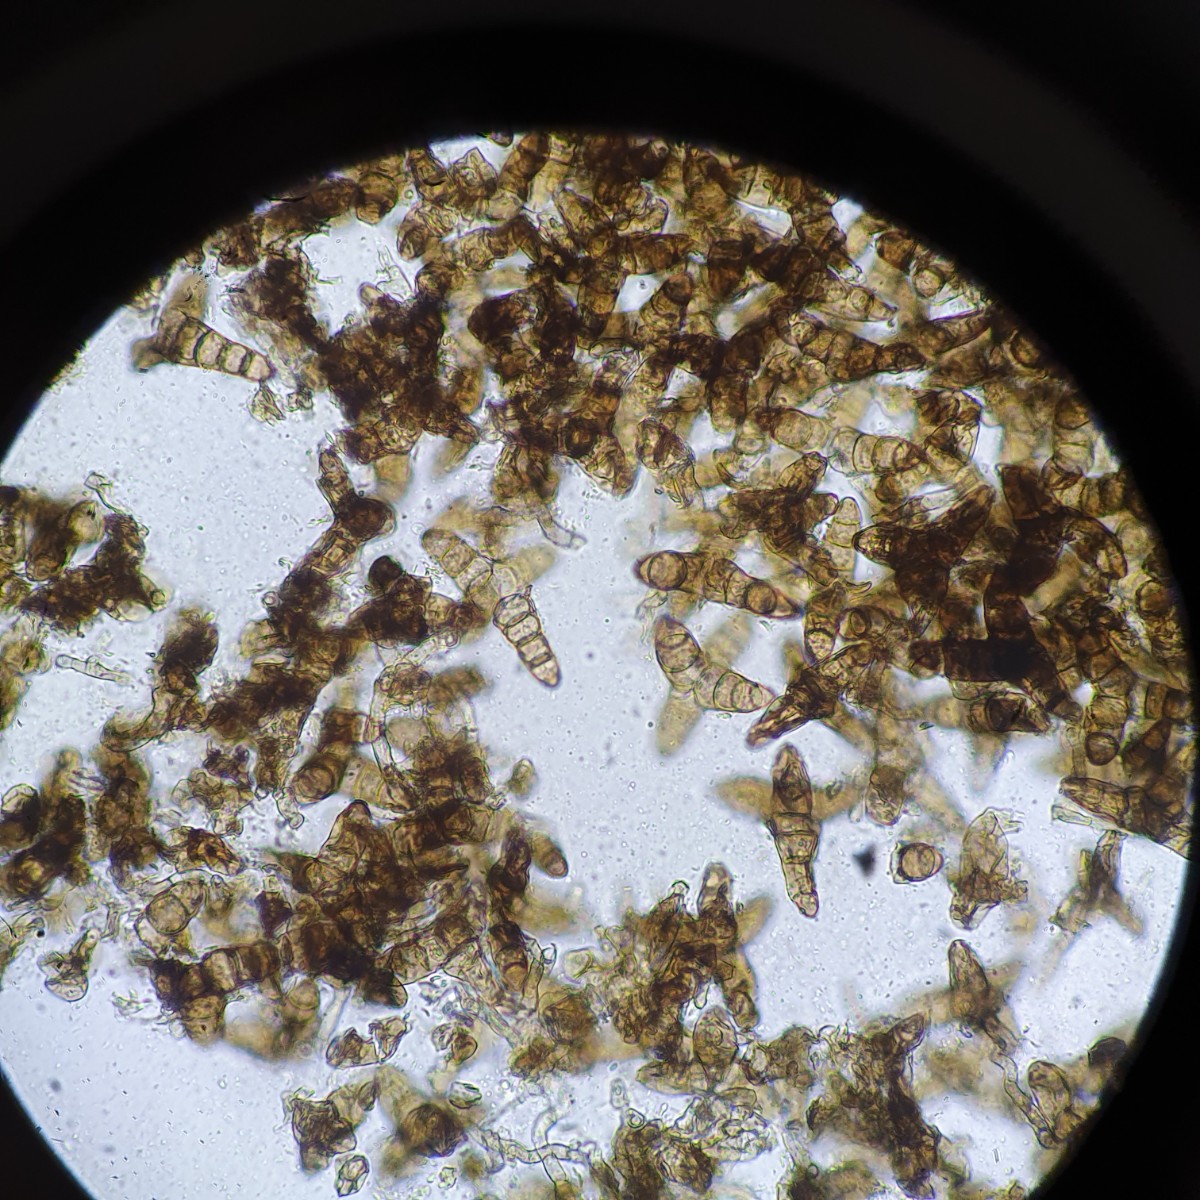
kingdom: Fungi
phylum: Ascomycota
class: Sordariomycetes
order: Diaporthales
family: Asterosporiaceae
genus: Asterosporium
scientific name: Asterosporium asterospermum
